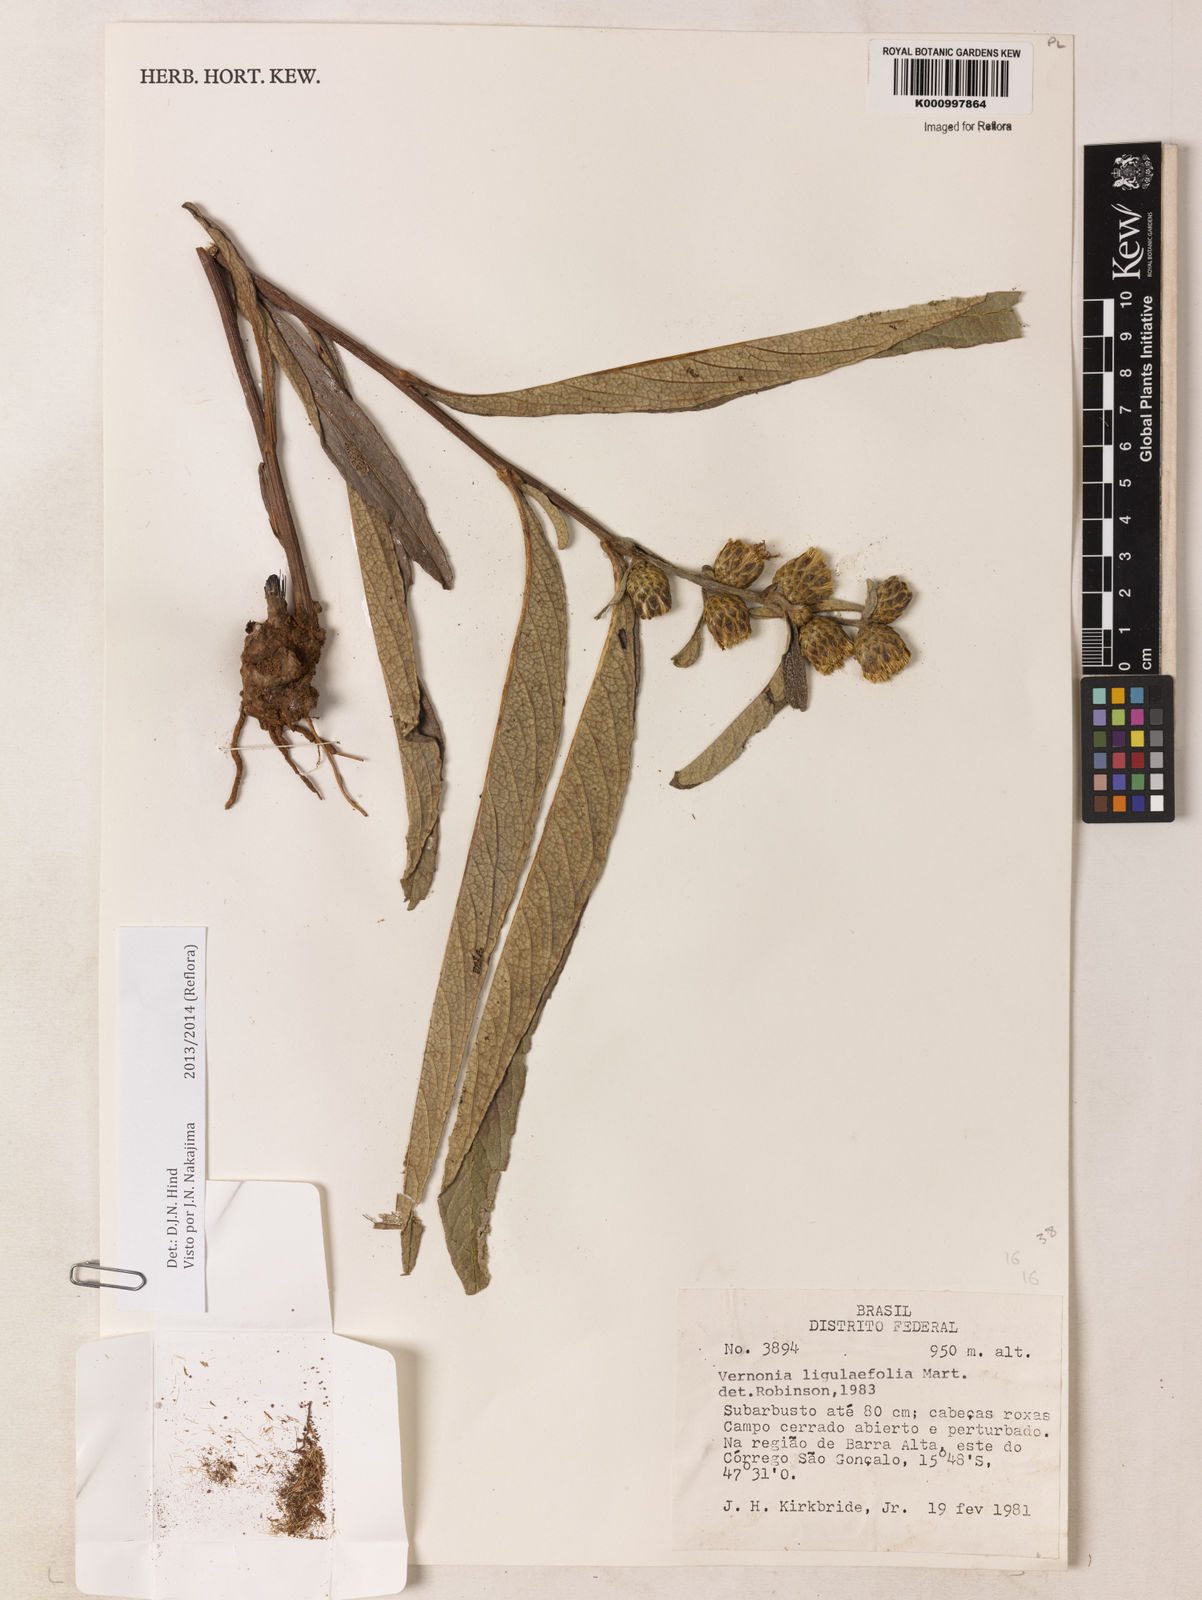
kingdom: Plantae
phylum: Tracheophyta
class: Magnoliopsida
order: Asterales
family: Asteraceae
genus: Lessingianthus
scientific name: Lessingianthus ligulifolius
